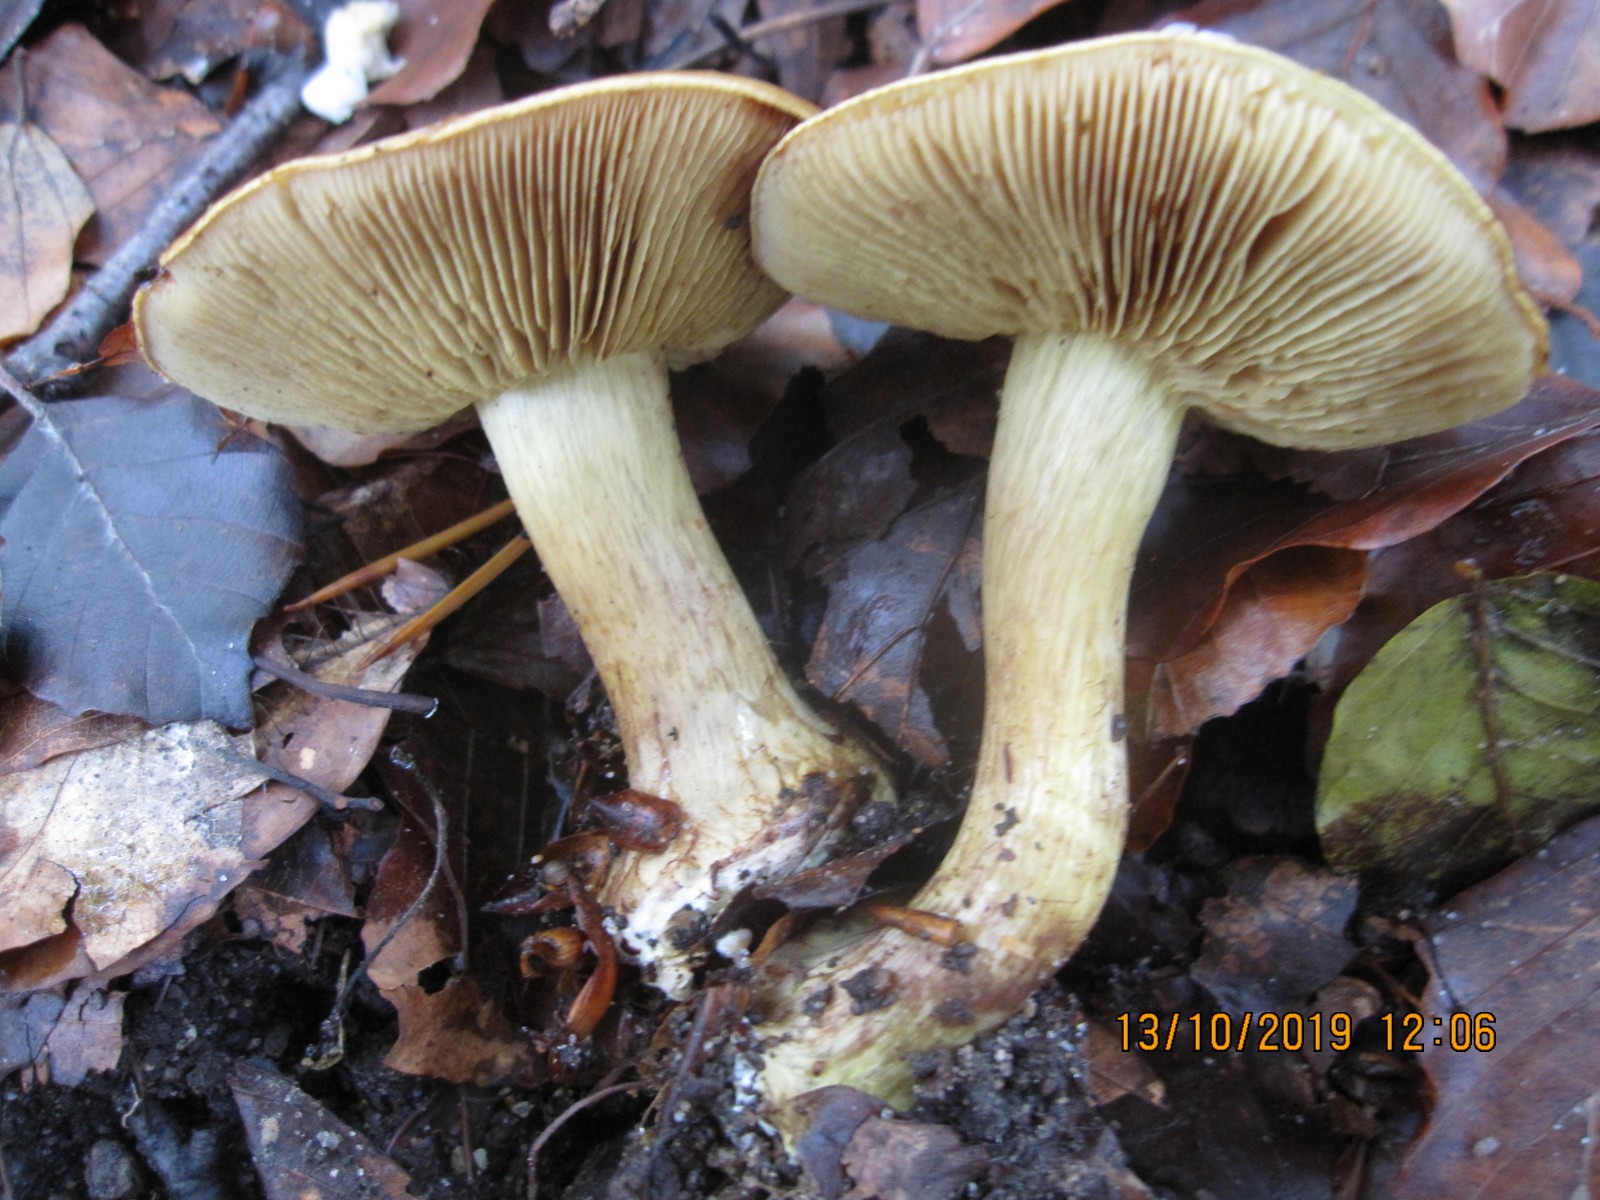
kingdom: Fungi
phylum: Basidiomycota
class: Agaricomycetes
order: Agaricales
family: Cortinariaceae
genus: Calonarius
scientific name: Calonarius citrinus
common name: citrongul slørhat
